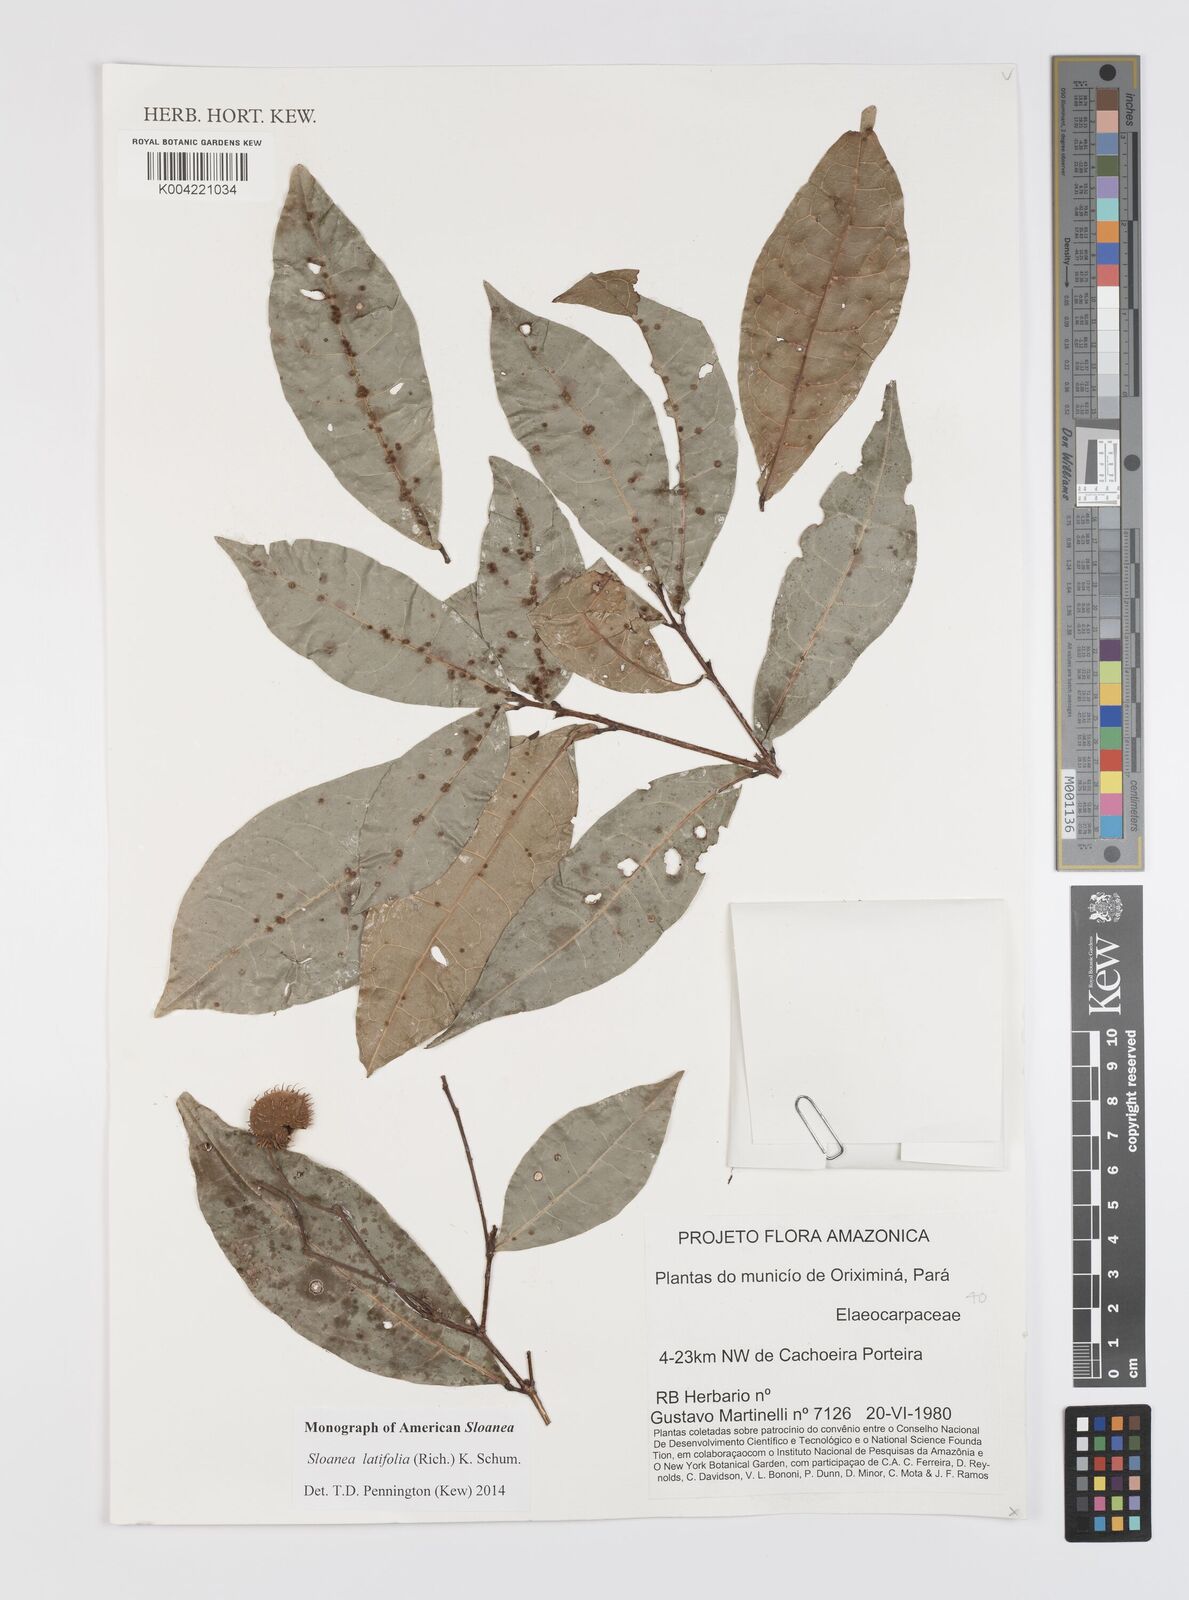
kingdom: Plantae
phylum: Tracheophyta
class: Magnoliopsida
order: Oxalidales
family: Elaeocarpaceae
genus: Sloanea
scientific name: Sloanea latifolia
